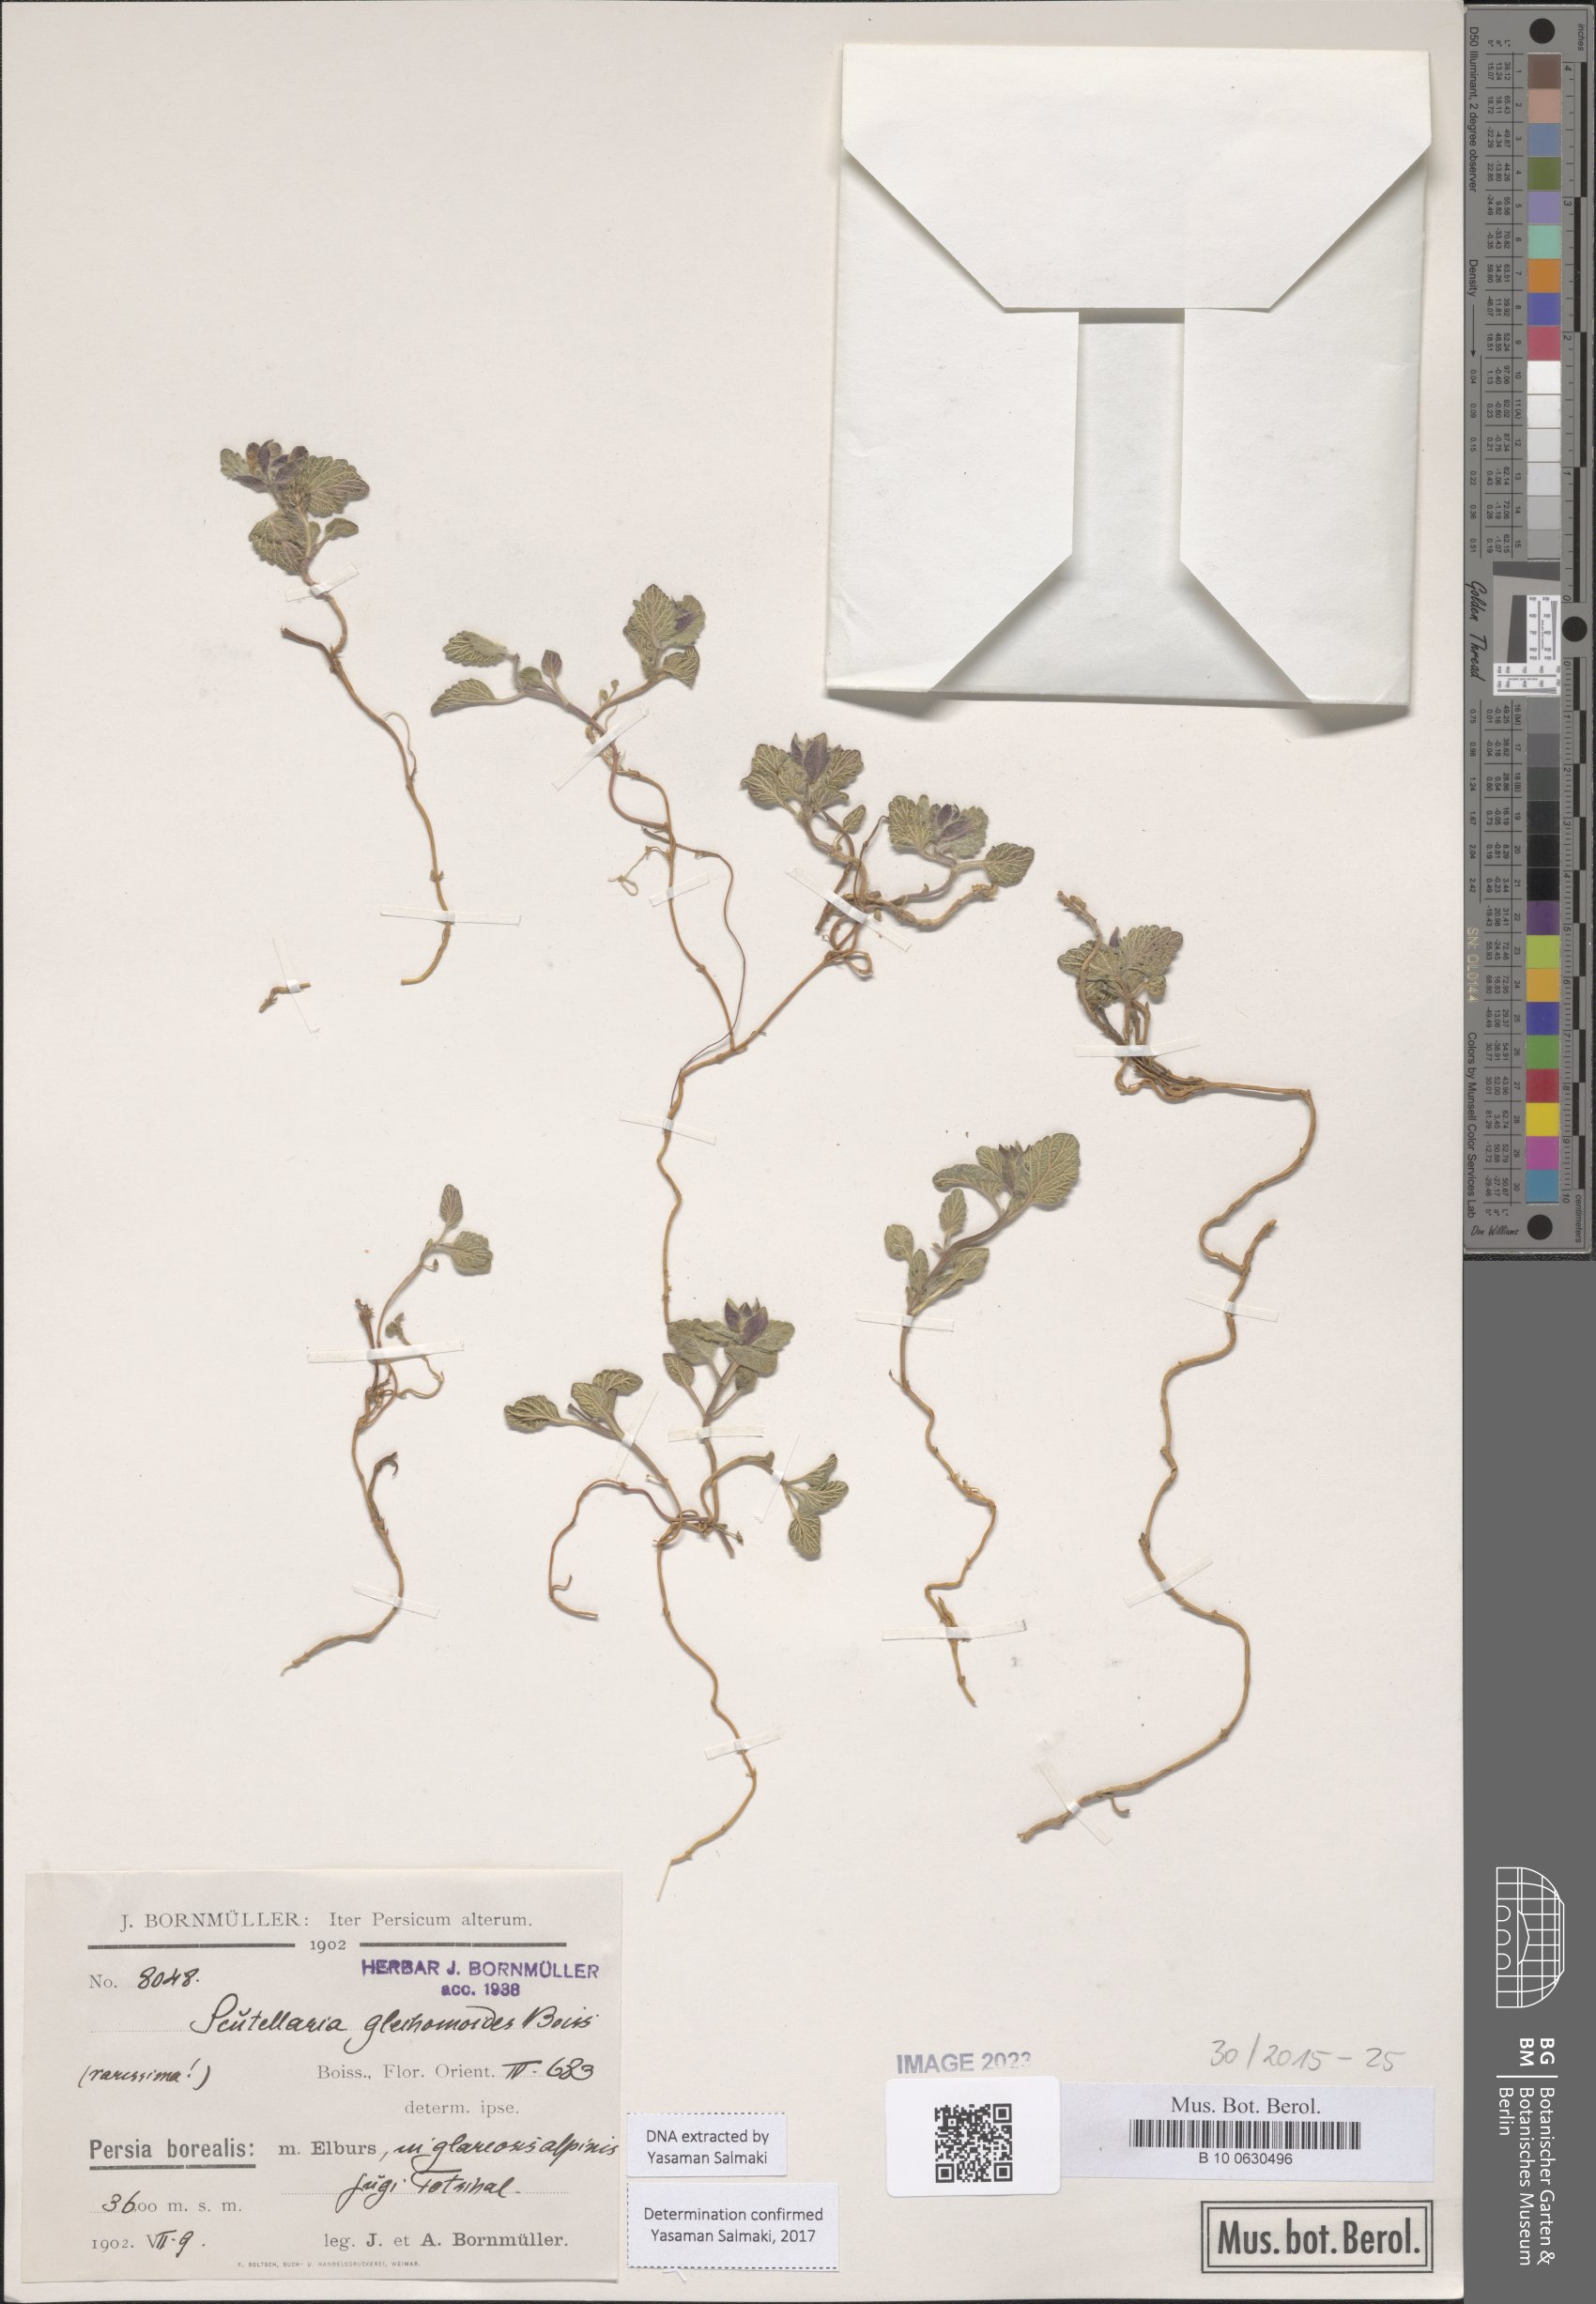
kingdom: Plantae
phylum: Tracheophyta
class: Magnoliopsida
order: Lamiales
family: Lamiaceae
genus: Scutellaria
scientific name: Scutellaria glechomoides
